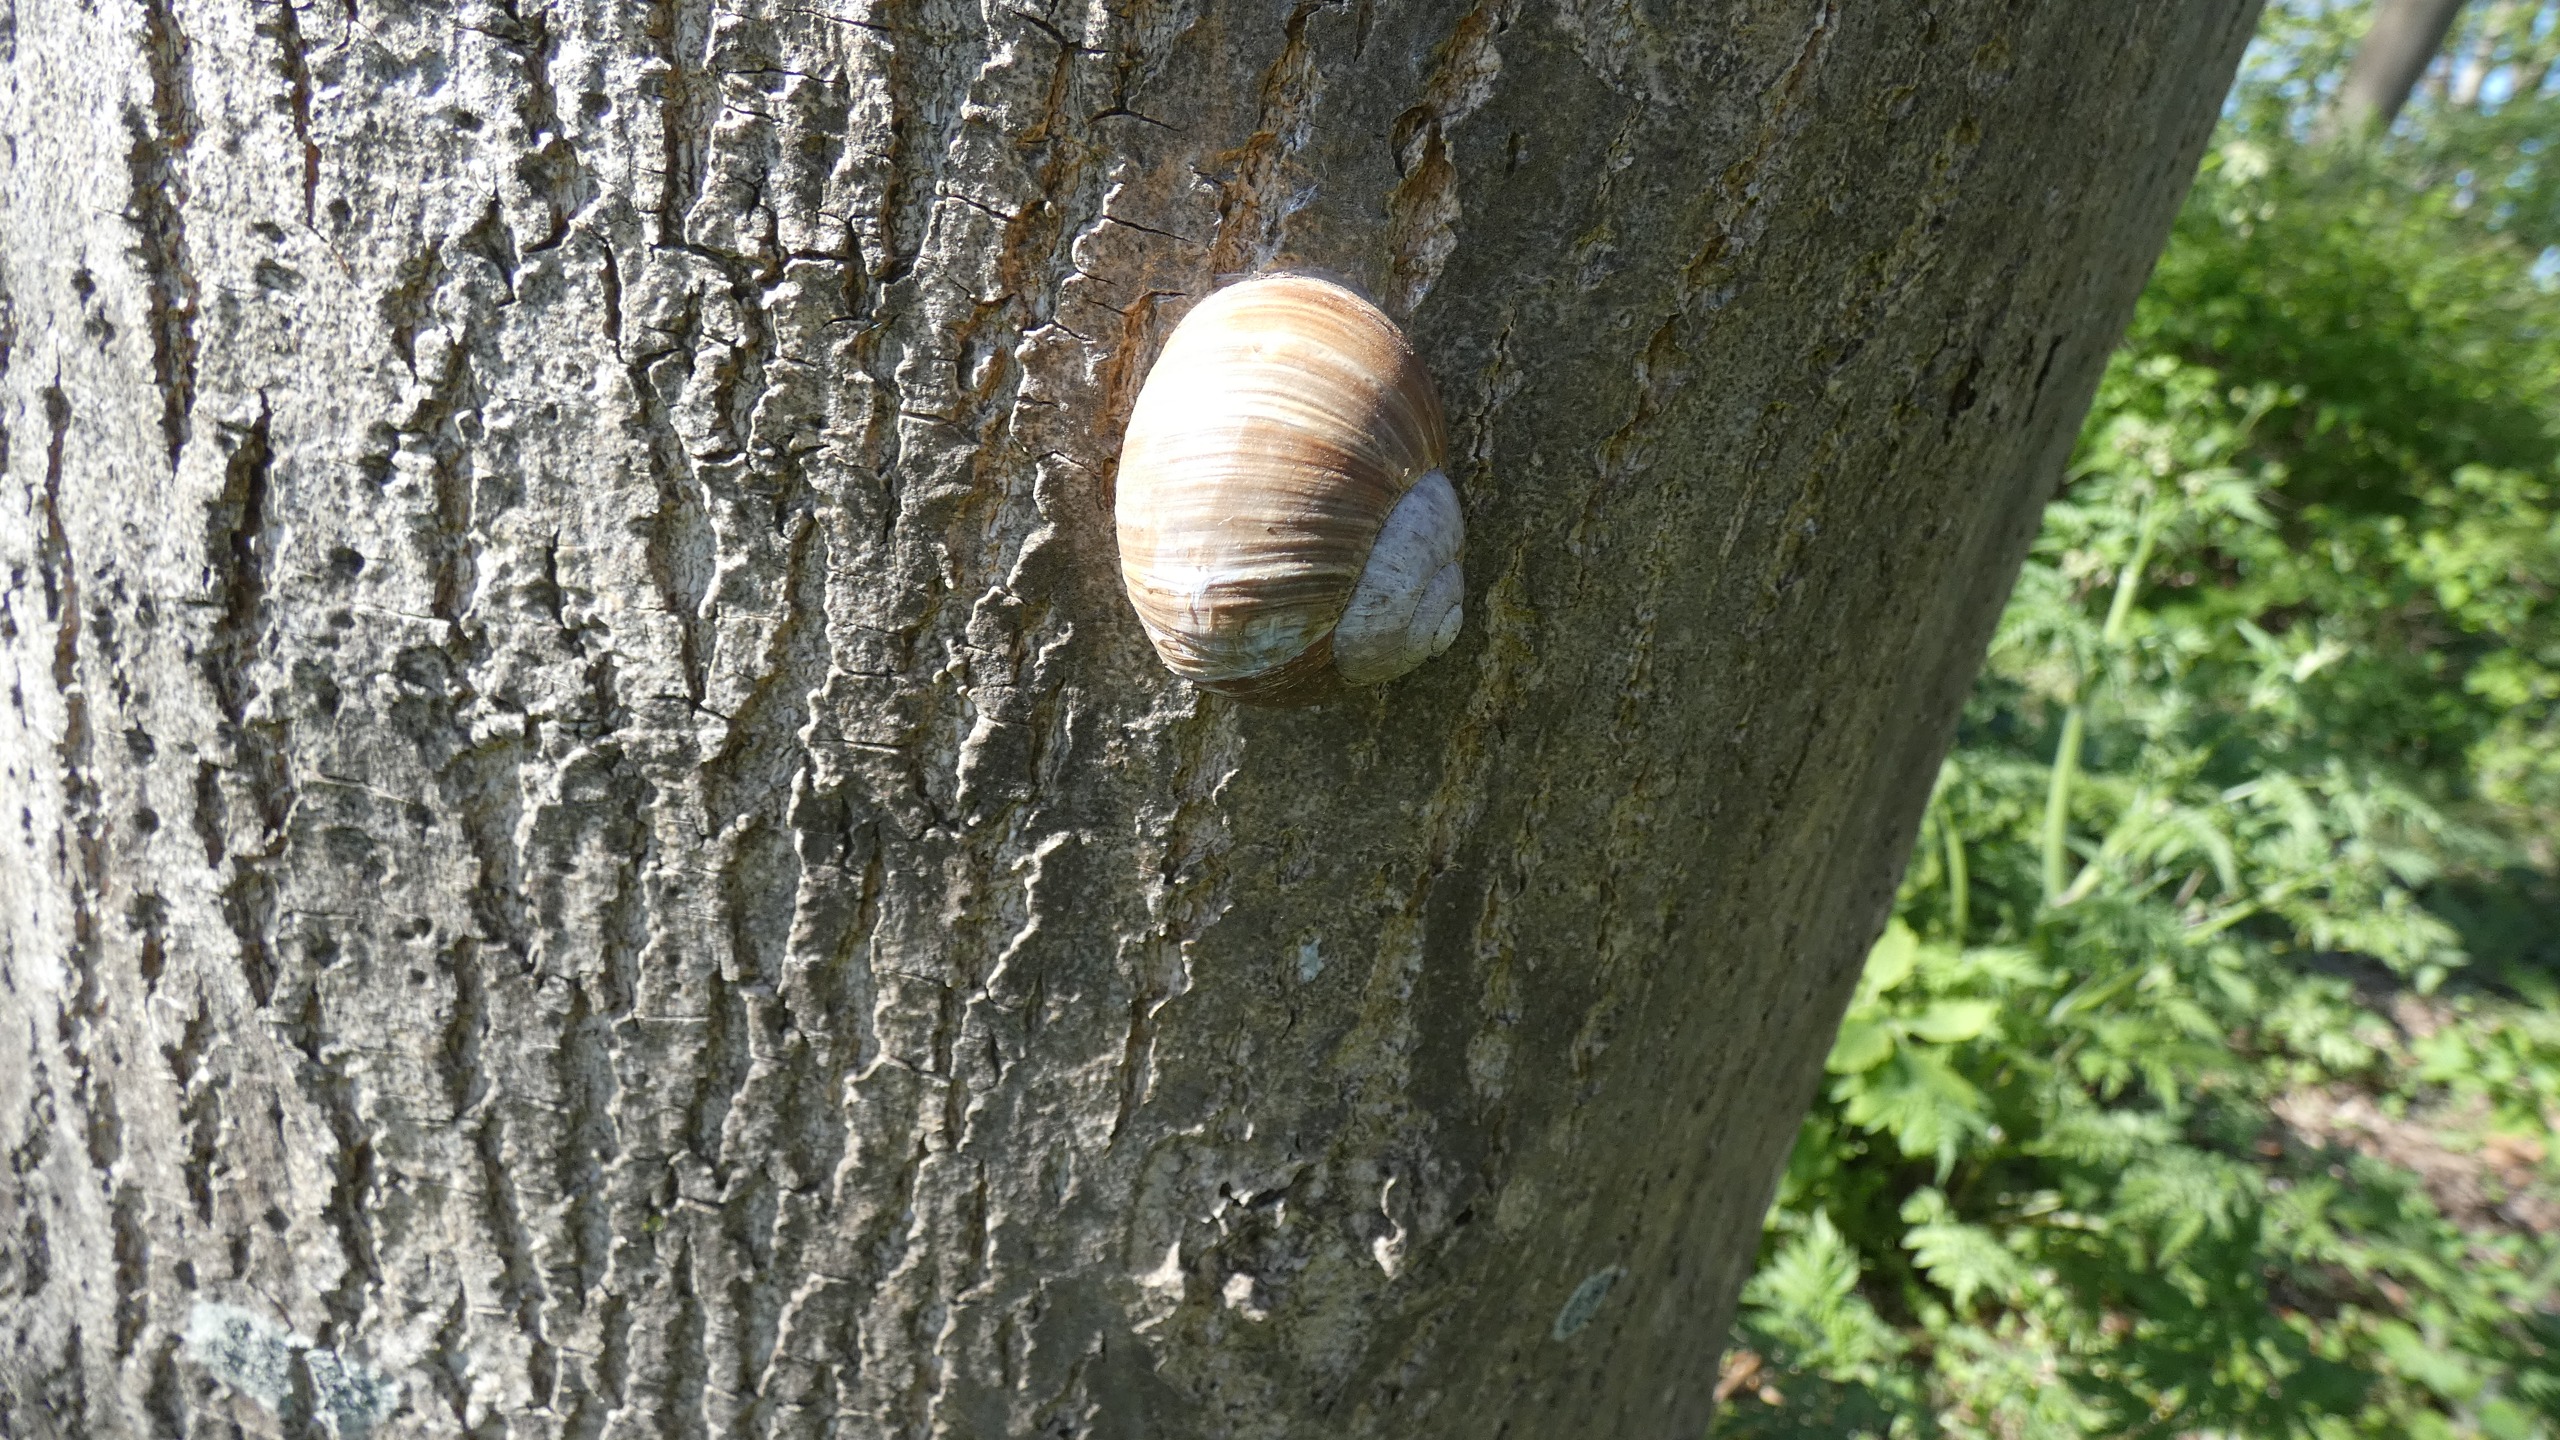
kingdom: Animalia
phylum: Mollusca
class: Gastropoda
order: Stylommatophora
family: Helicidae
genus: Helix
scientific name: Helix pomatia
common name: Vinbjergsnegl
